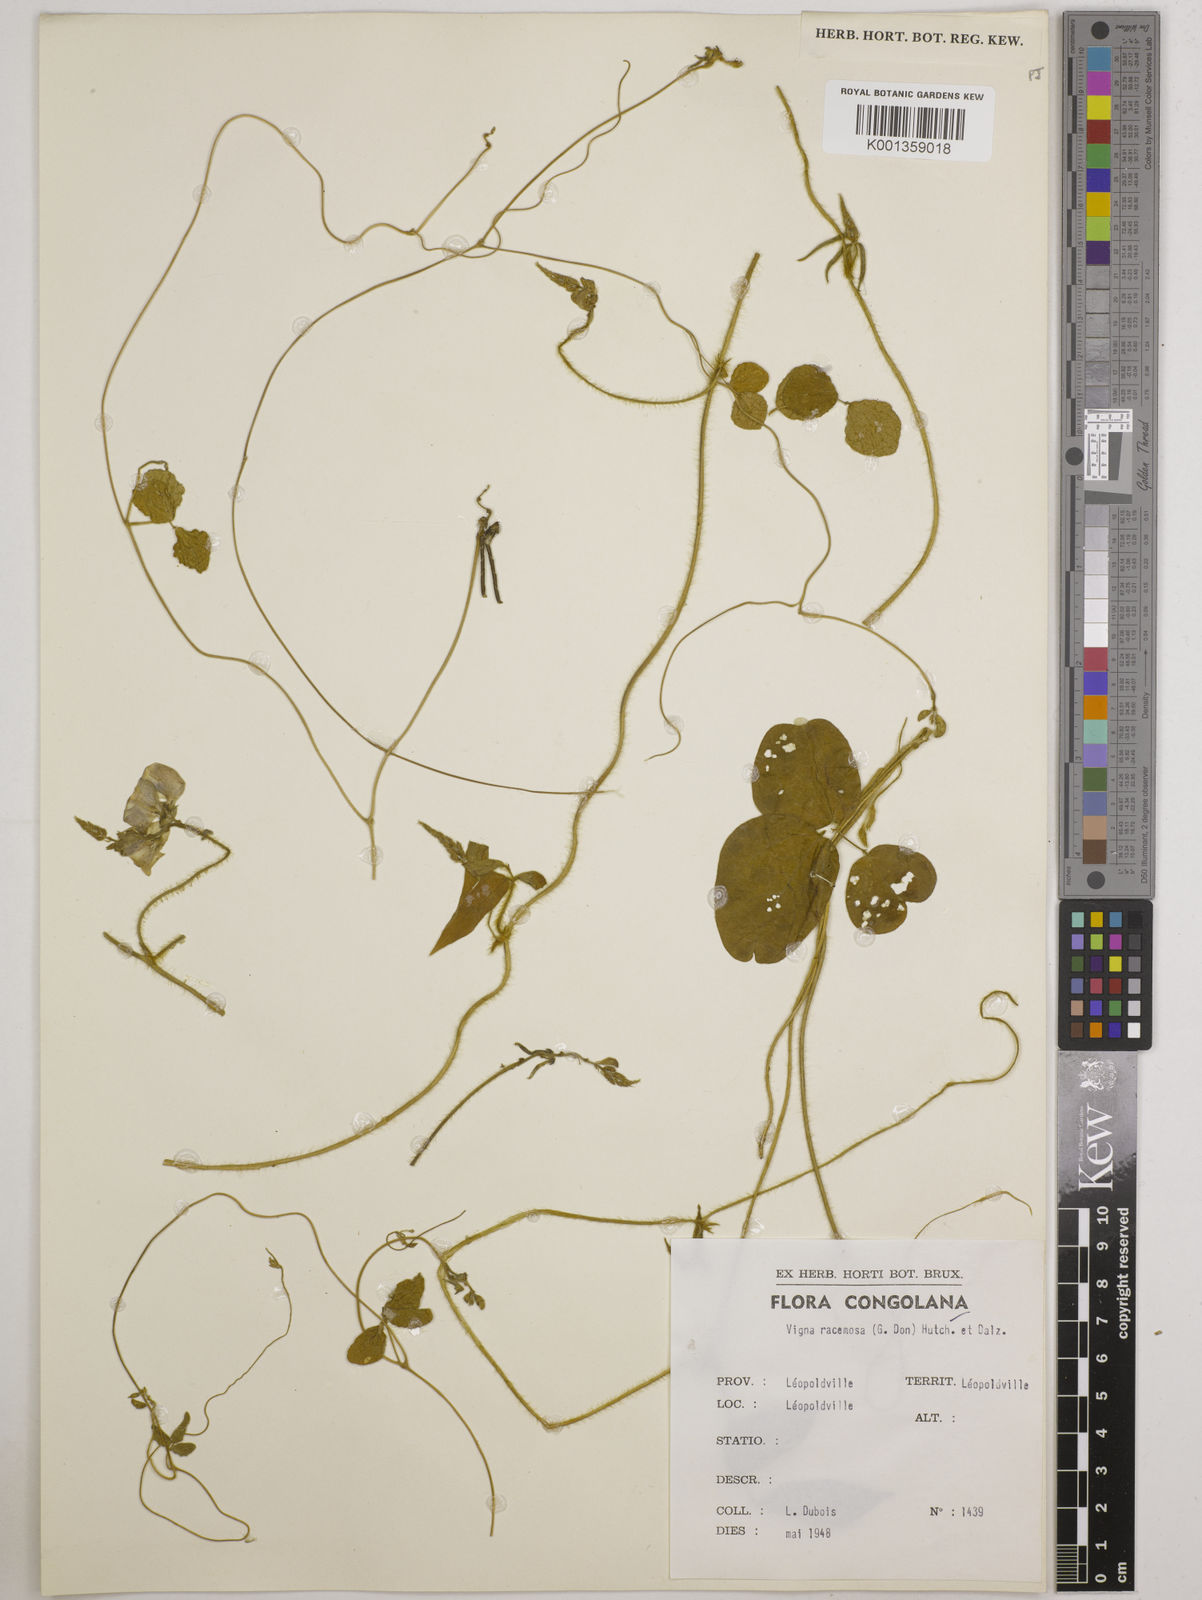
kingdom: Plantae
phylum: Tracheophyta
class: Magnoliopsida
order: Fabales
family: Fabaceae
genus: Vigna
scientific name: Vigna racemosa
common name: Beans not eaten
